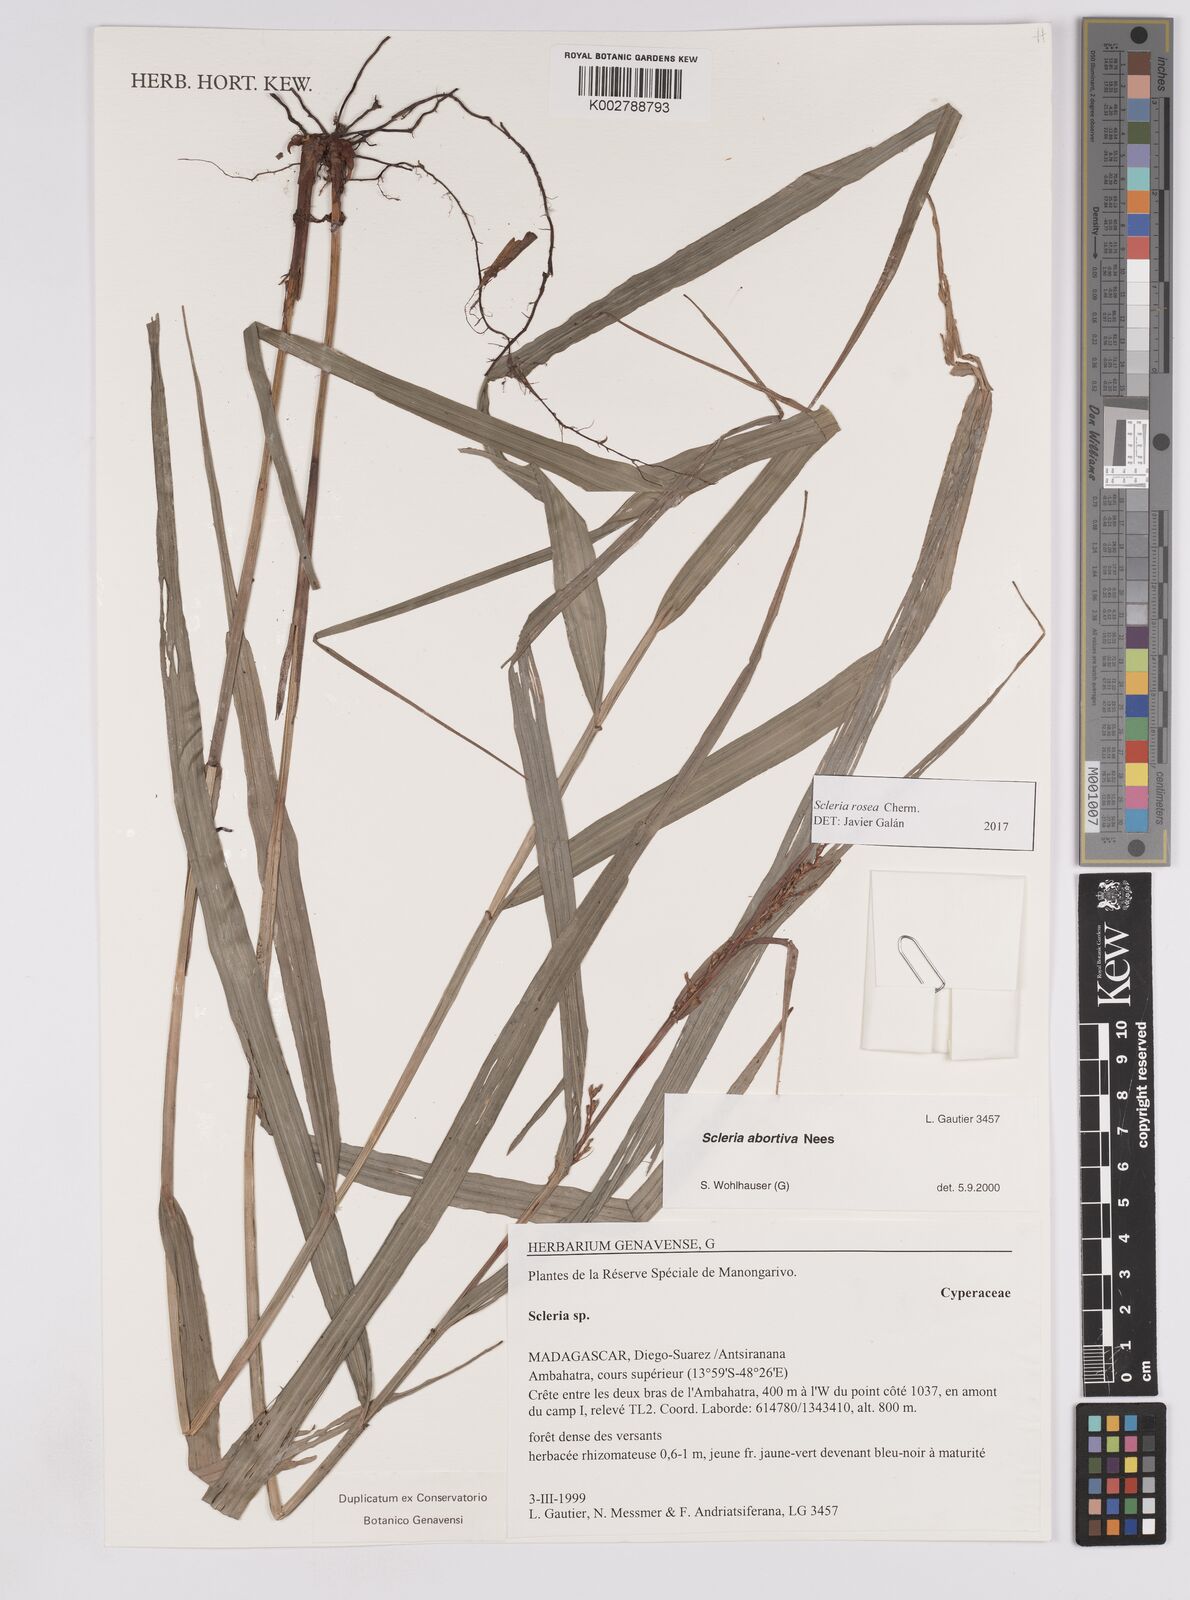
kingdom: Plantae
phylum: Tracheophyta
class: Liliopsida
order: Poales
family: Cyperaceae
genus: Scleria
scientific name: Scleria trialata
